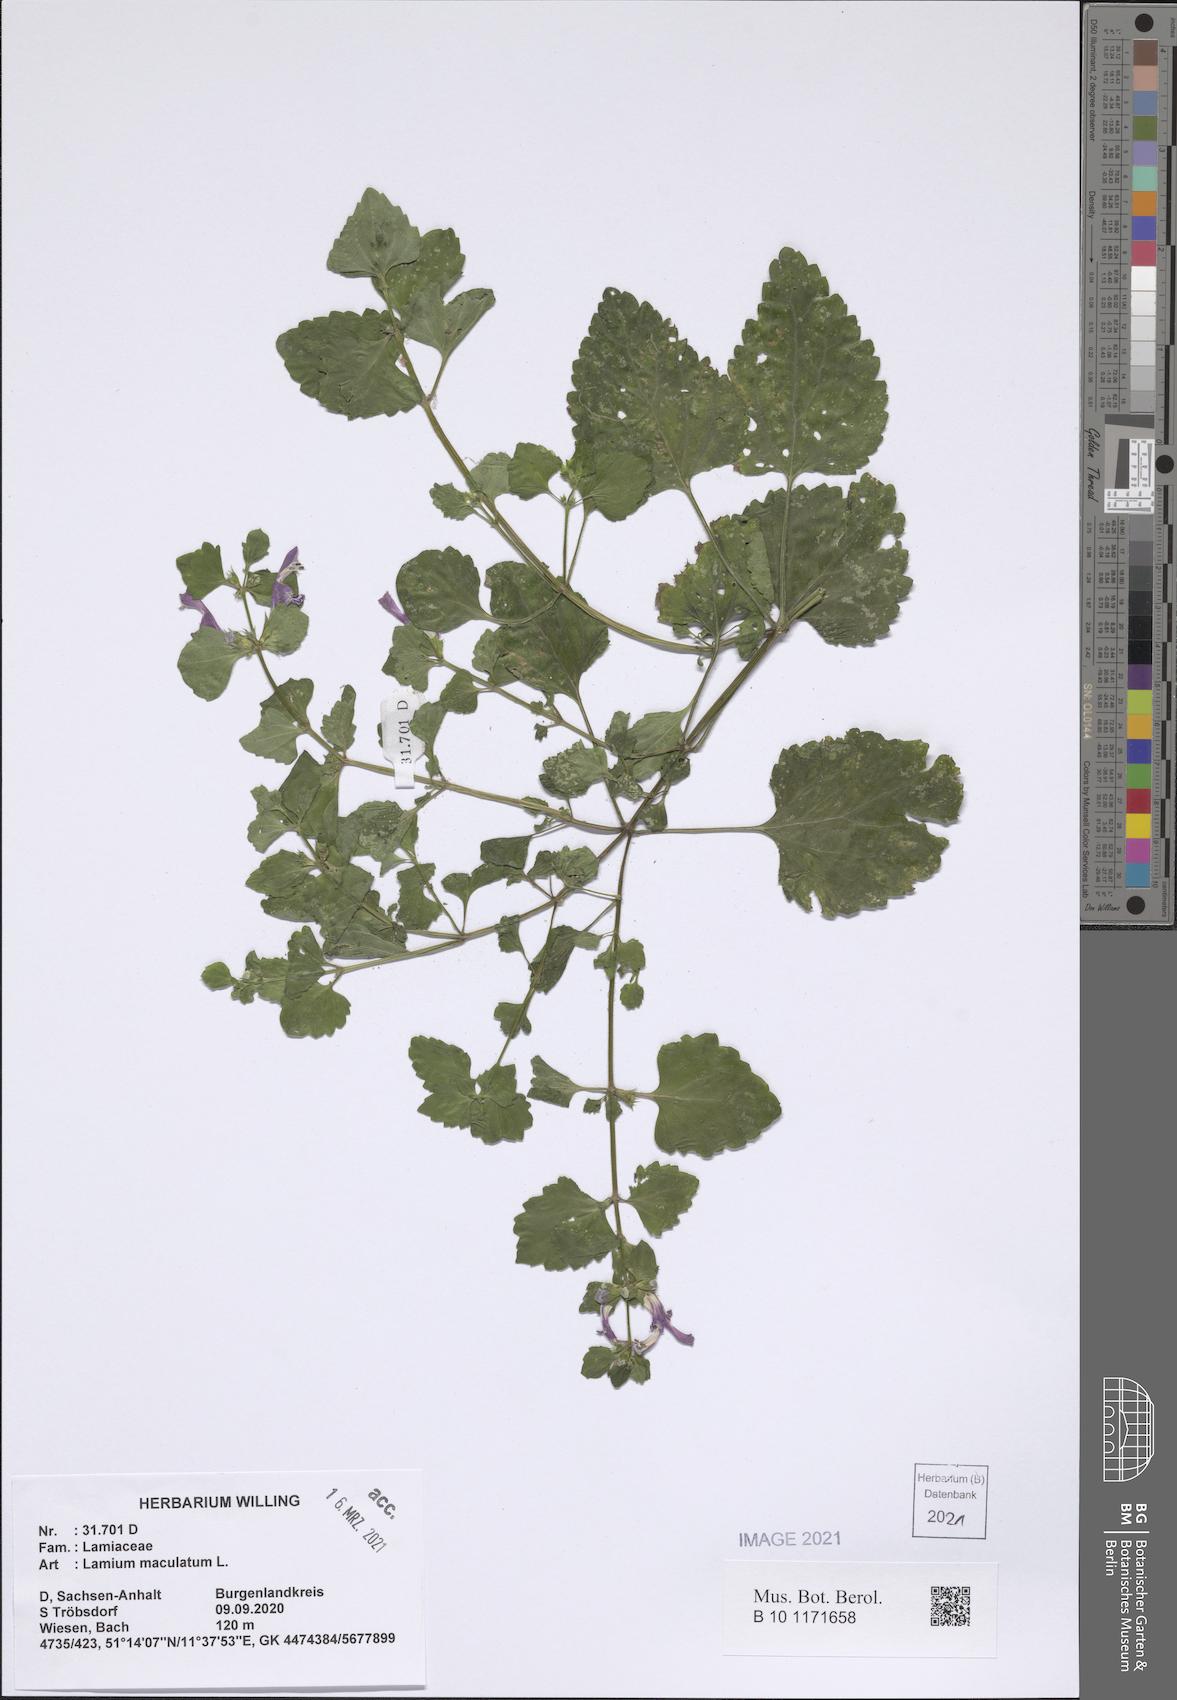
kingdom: Plantae
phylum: Tracheophyta
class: Magnoliopsida
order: Lamiales
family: Lamiaceae
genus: Lamium
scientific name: Lamium maculatum
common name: Spotted dead-nettle
